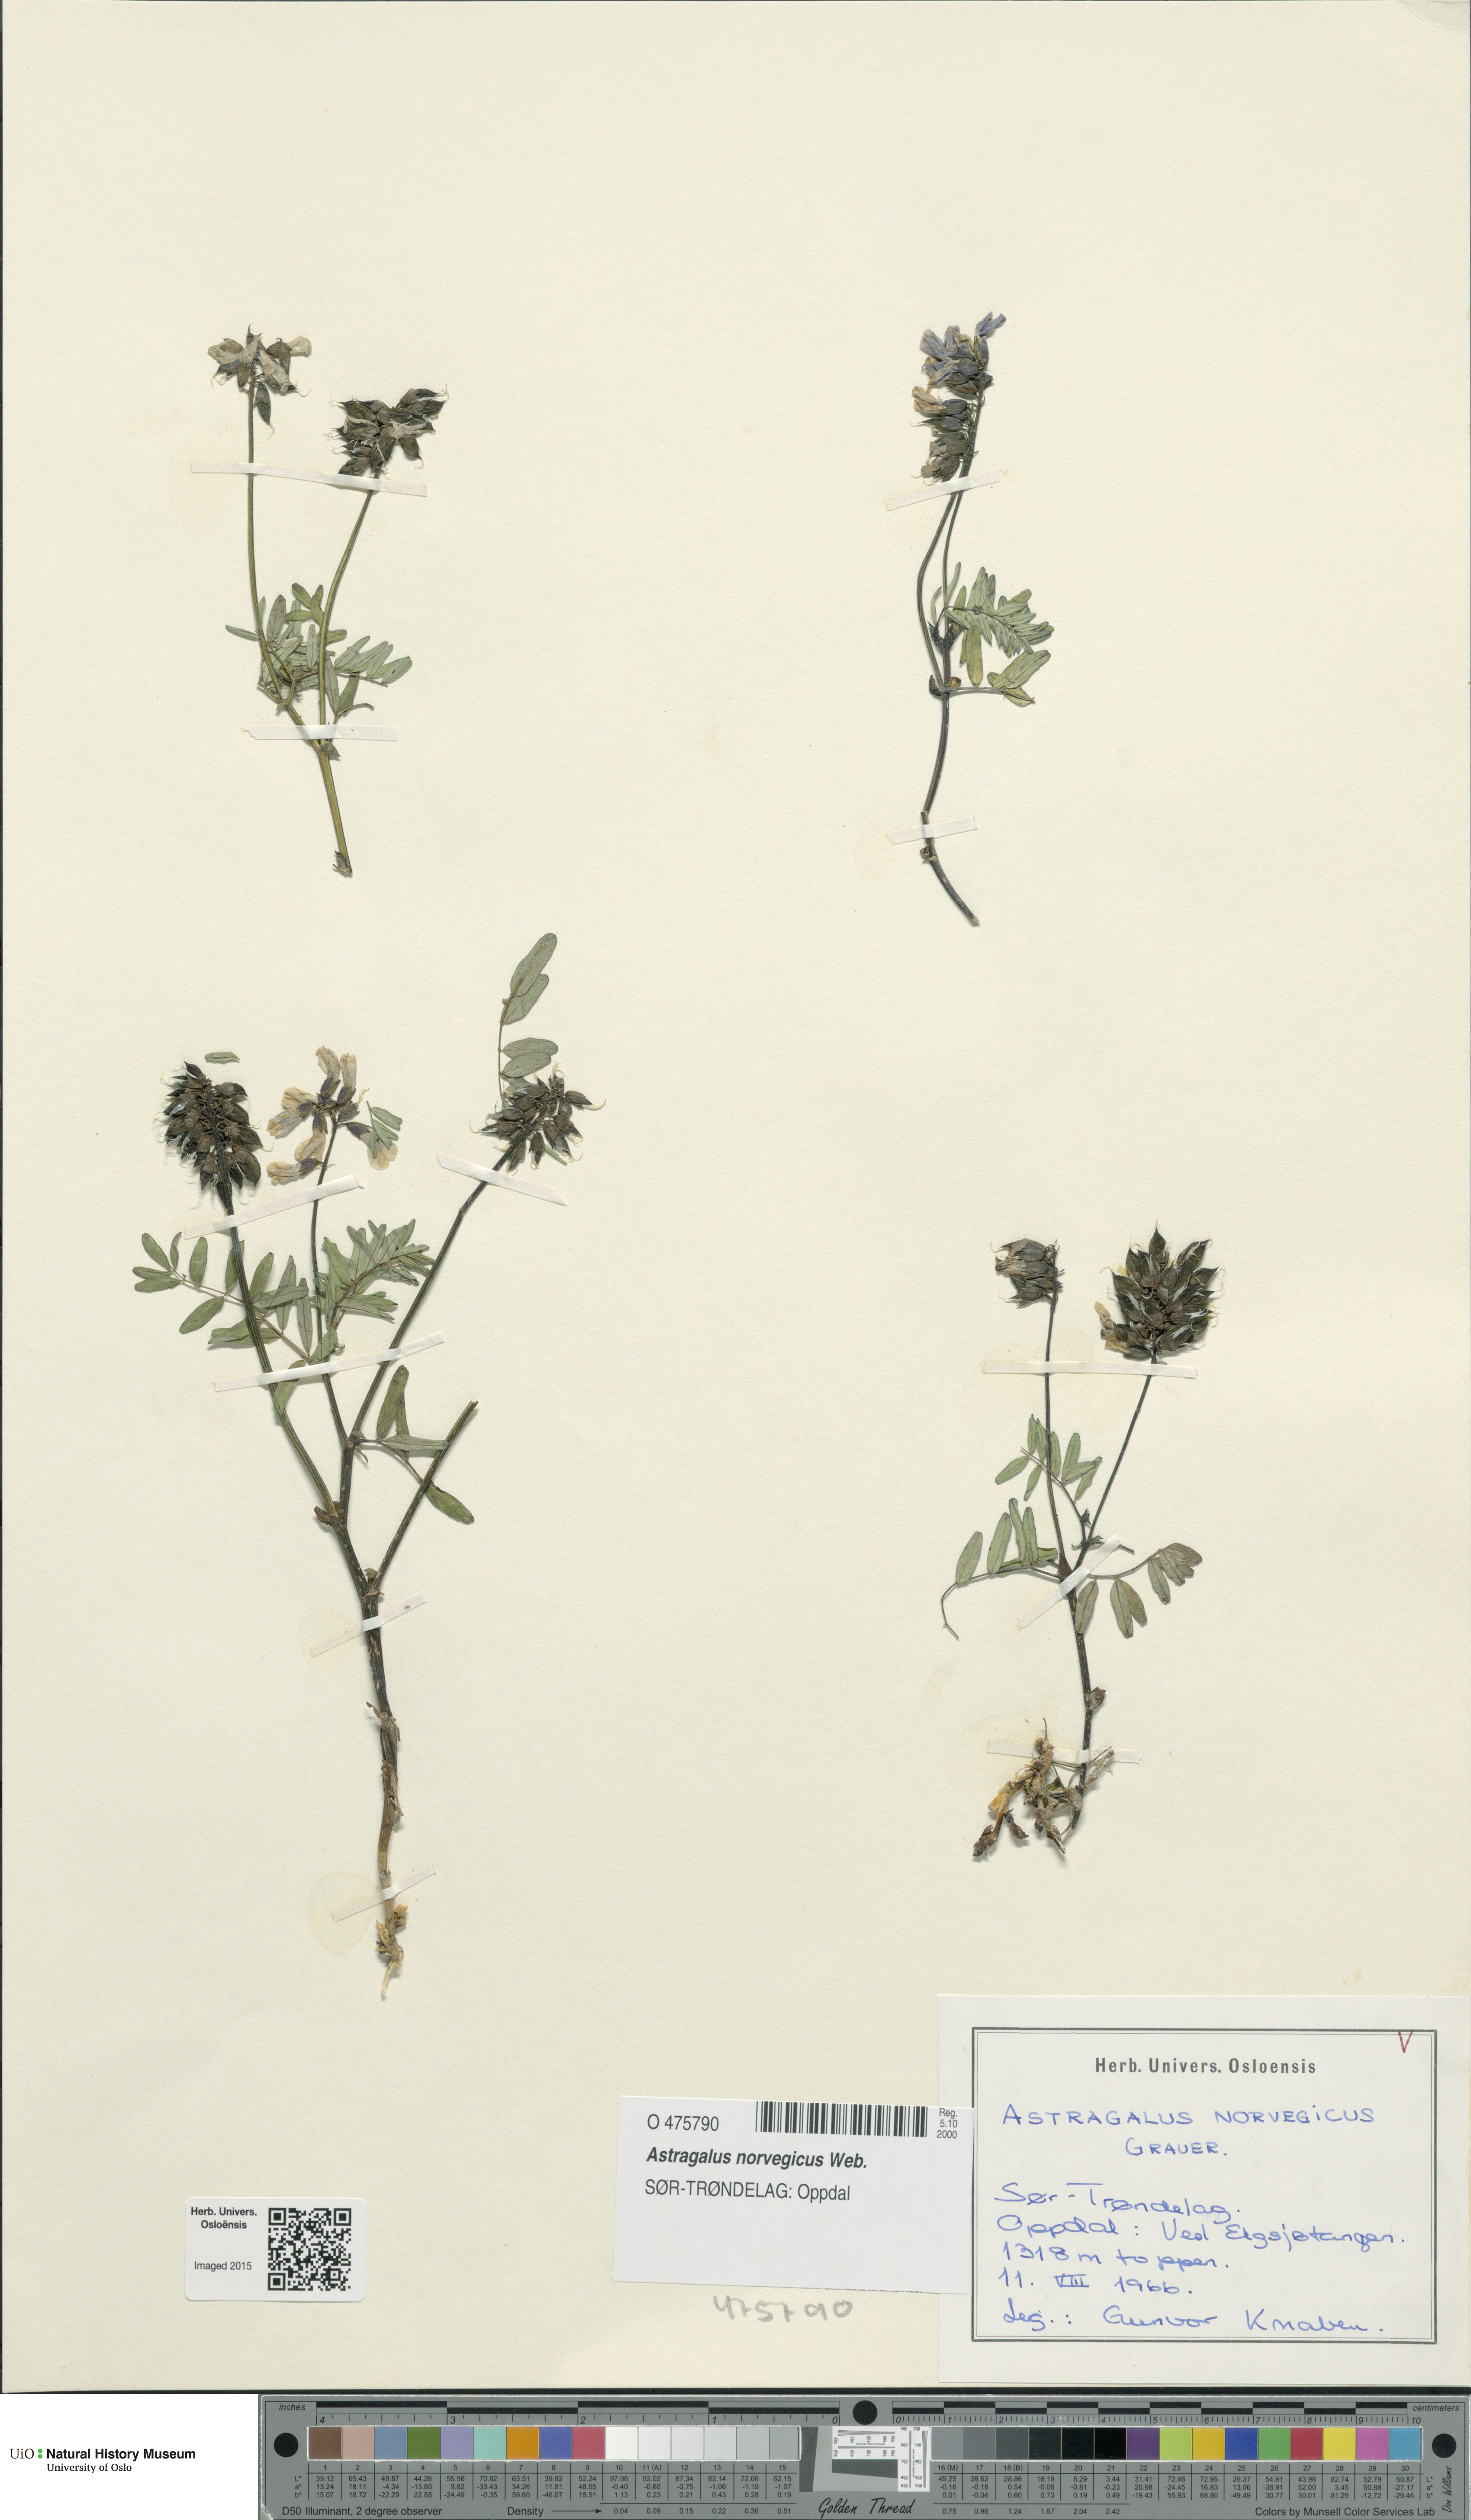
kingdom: Plantae
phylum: Tracheophyta
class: Magnoliopsida
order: Fabales
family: Fabaceae
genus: Astragalus
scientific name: Astragalus norvegicus
